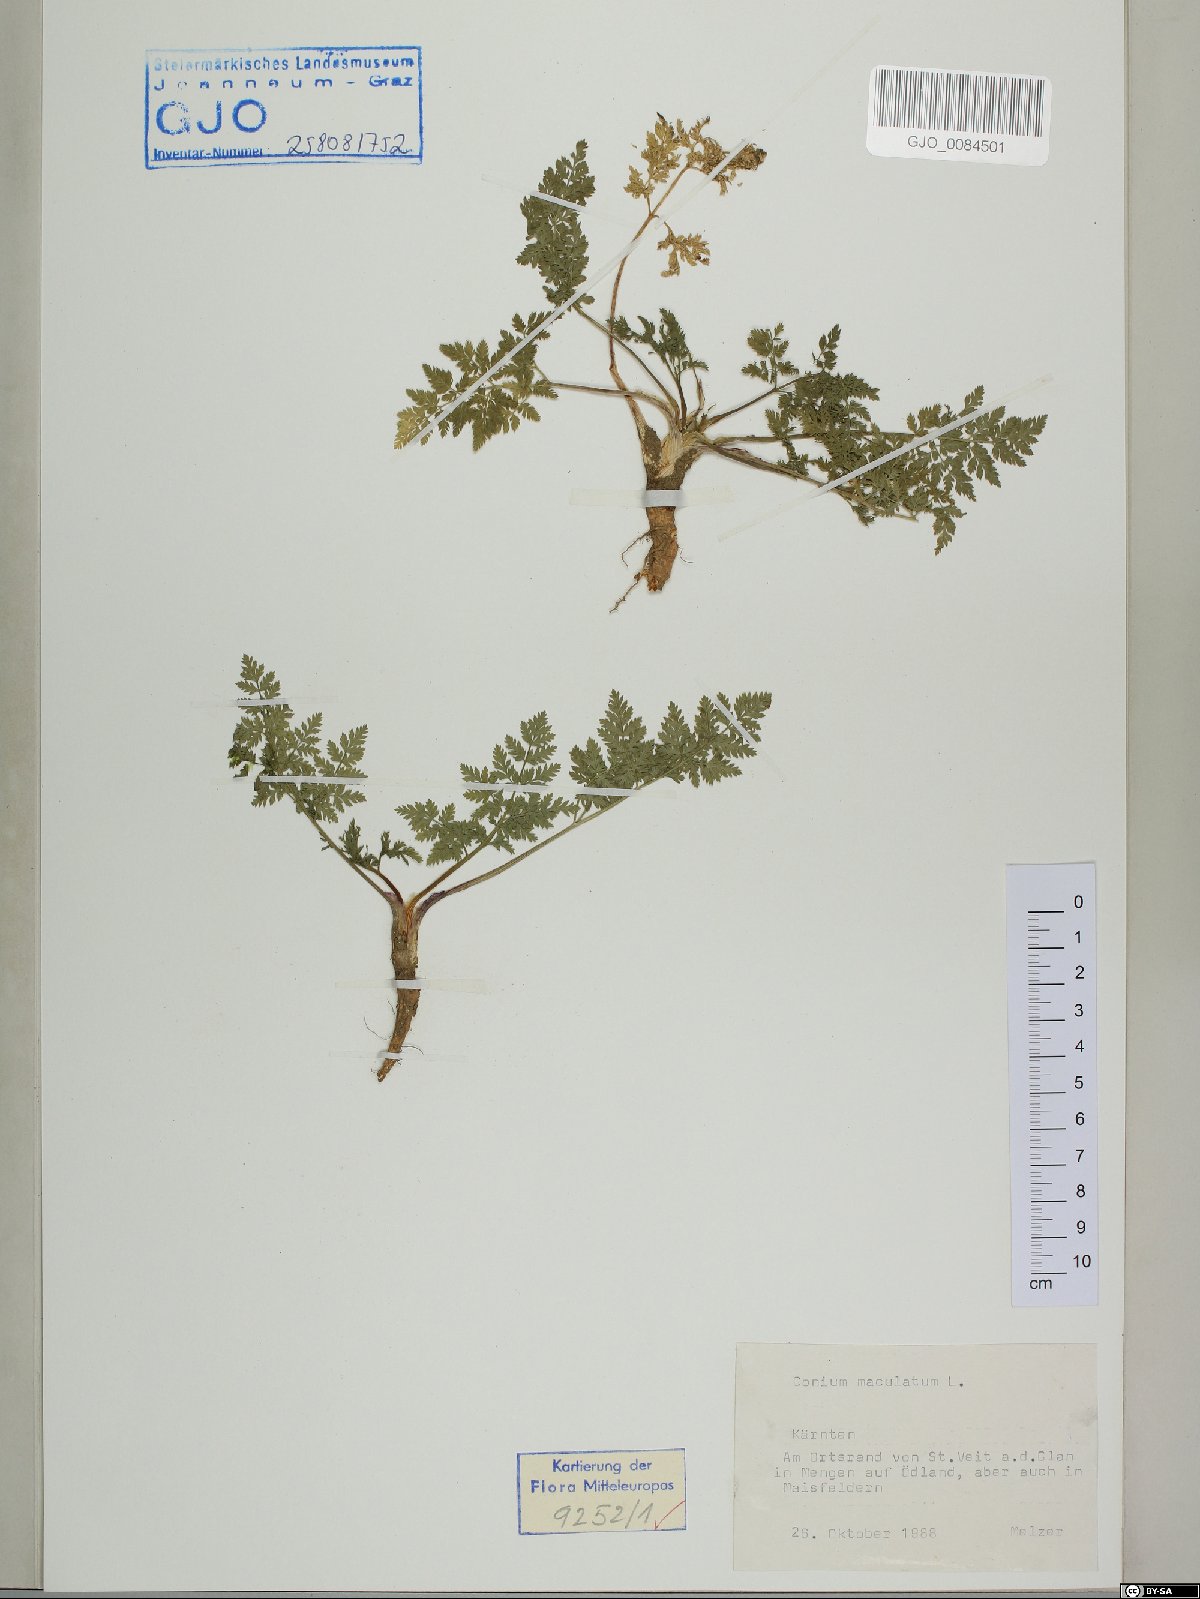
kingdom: Plantae
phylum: Tracheophyta
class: Magnoliopsida
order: Apiales
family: Apiaceae
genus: Conium
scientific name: Conium maculatum
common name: Hemlock
